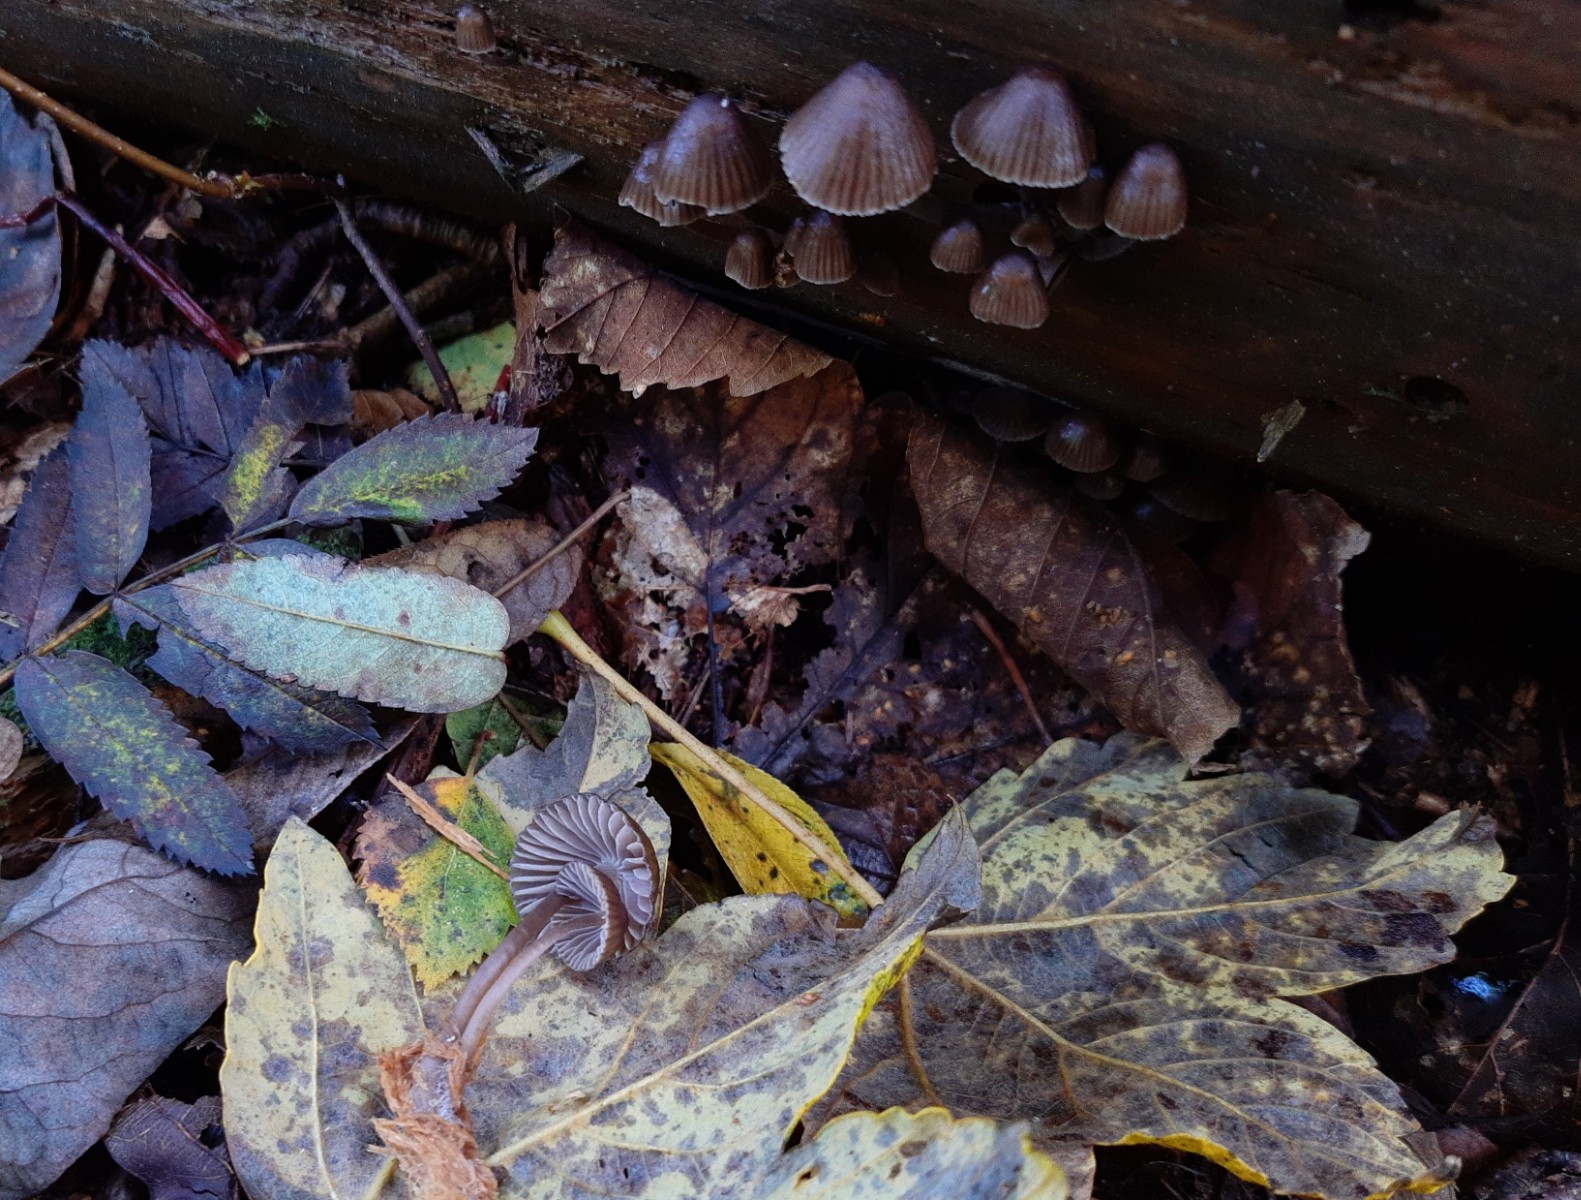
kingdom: Fungi
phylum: Basidiomycota
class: Agaricomycetes
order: Agaricales
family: Mycenaceae
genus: Mycena
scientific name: Mycena stipata
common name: stinkende huesvamp
